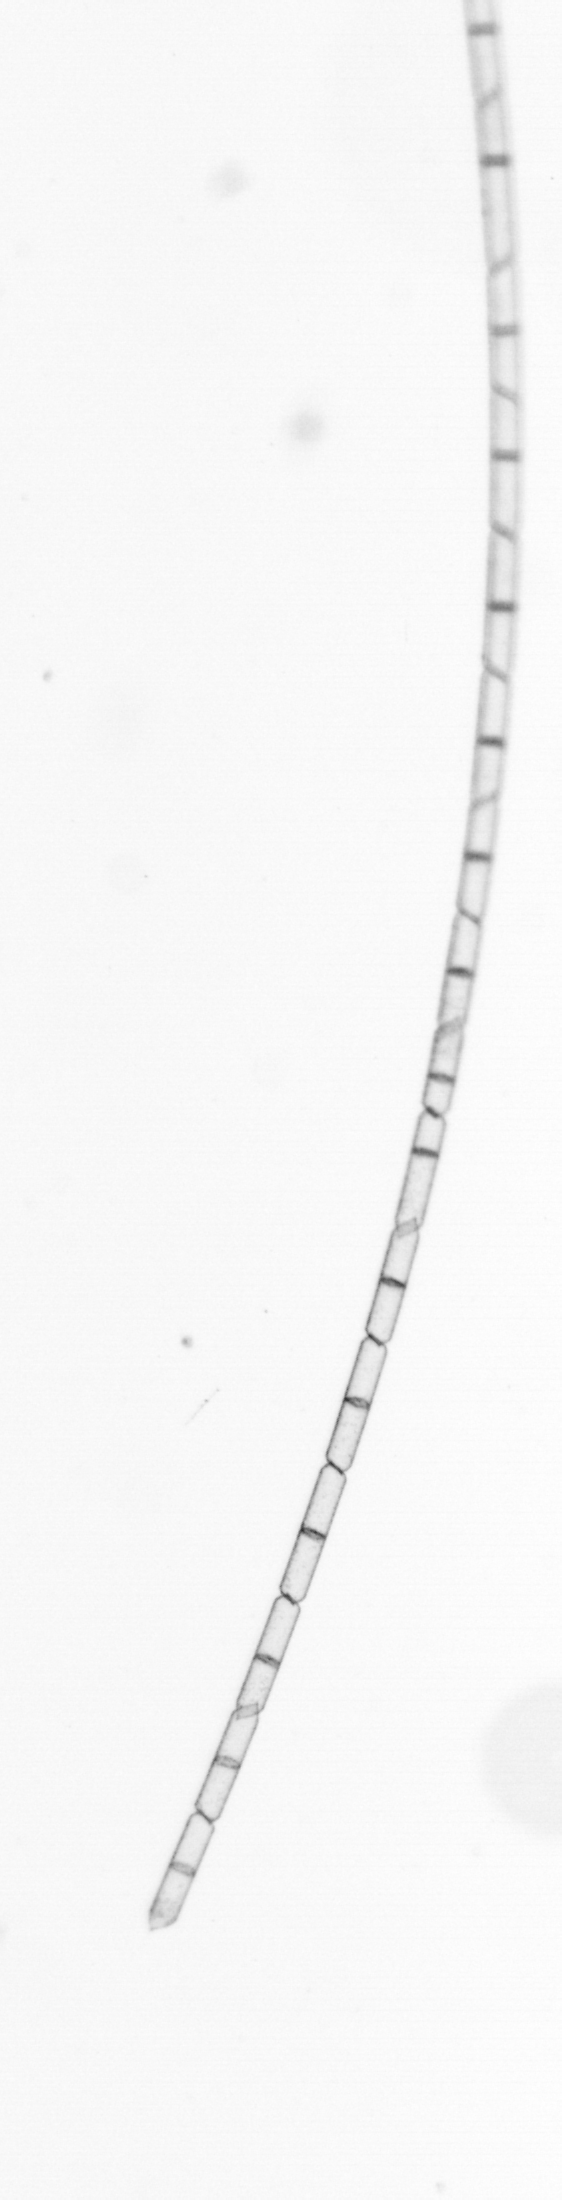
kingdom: Chromista
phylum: Ochrophyta
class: Bacillariophyceae
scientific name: Bacillariophyceae
